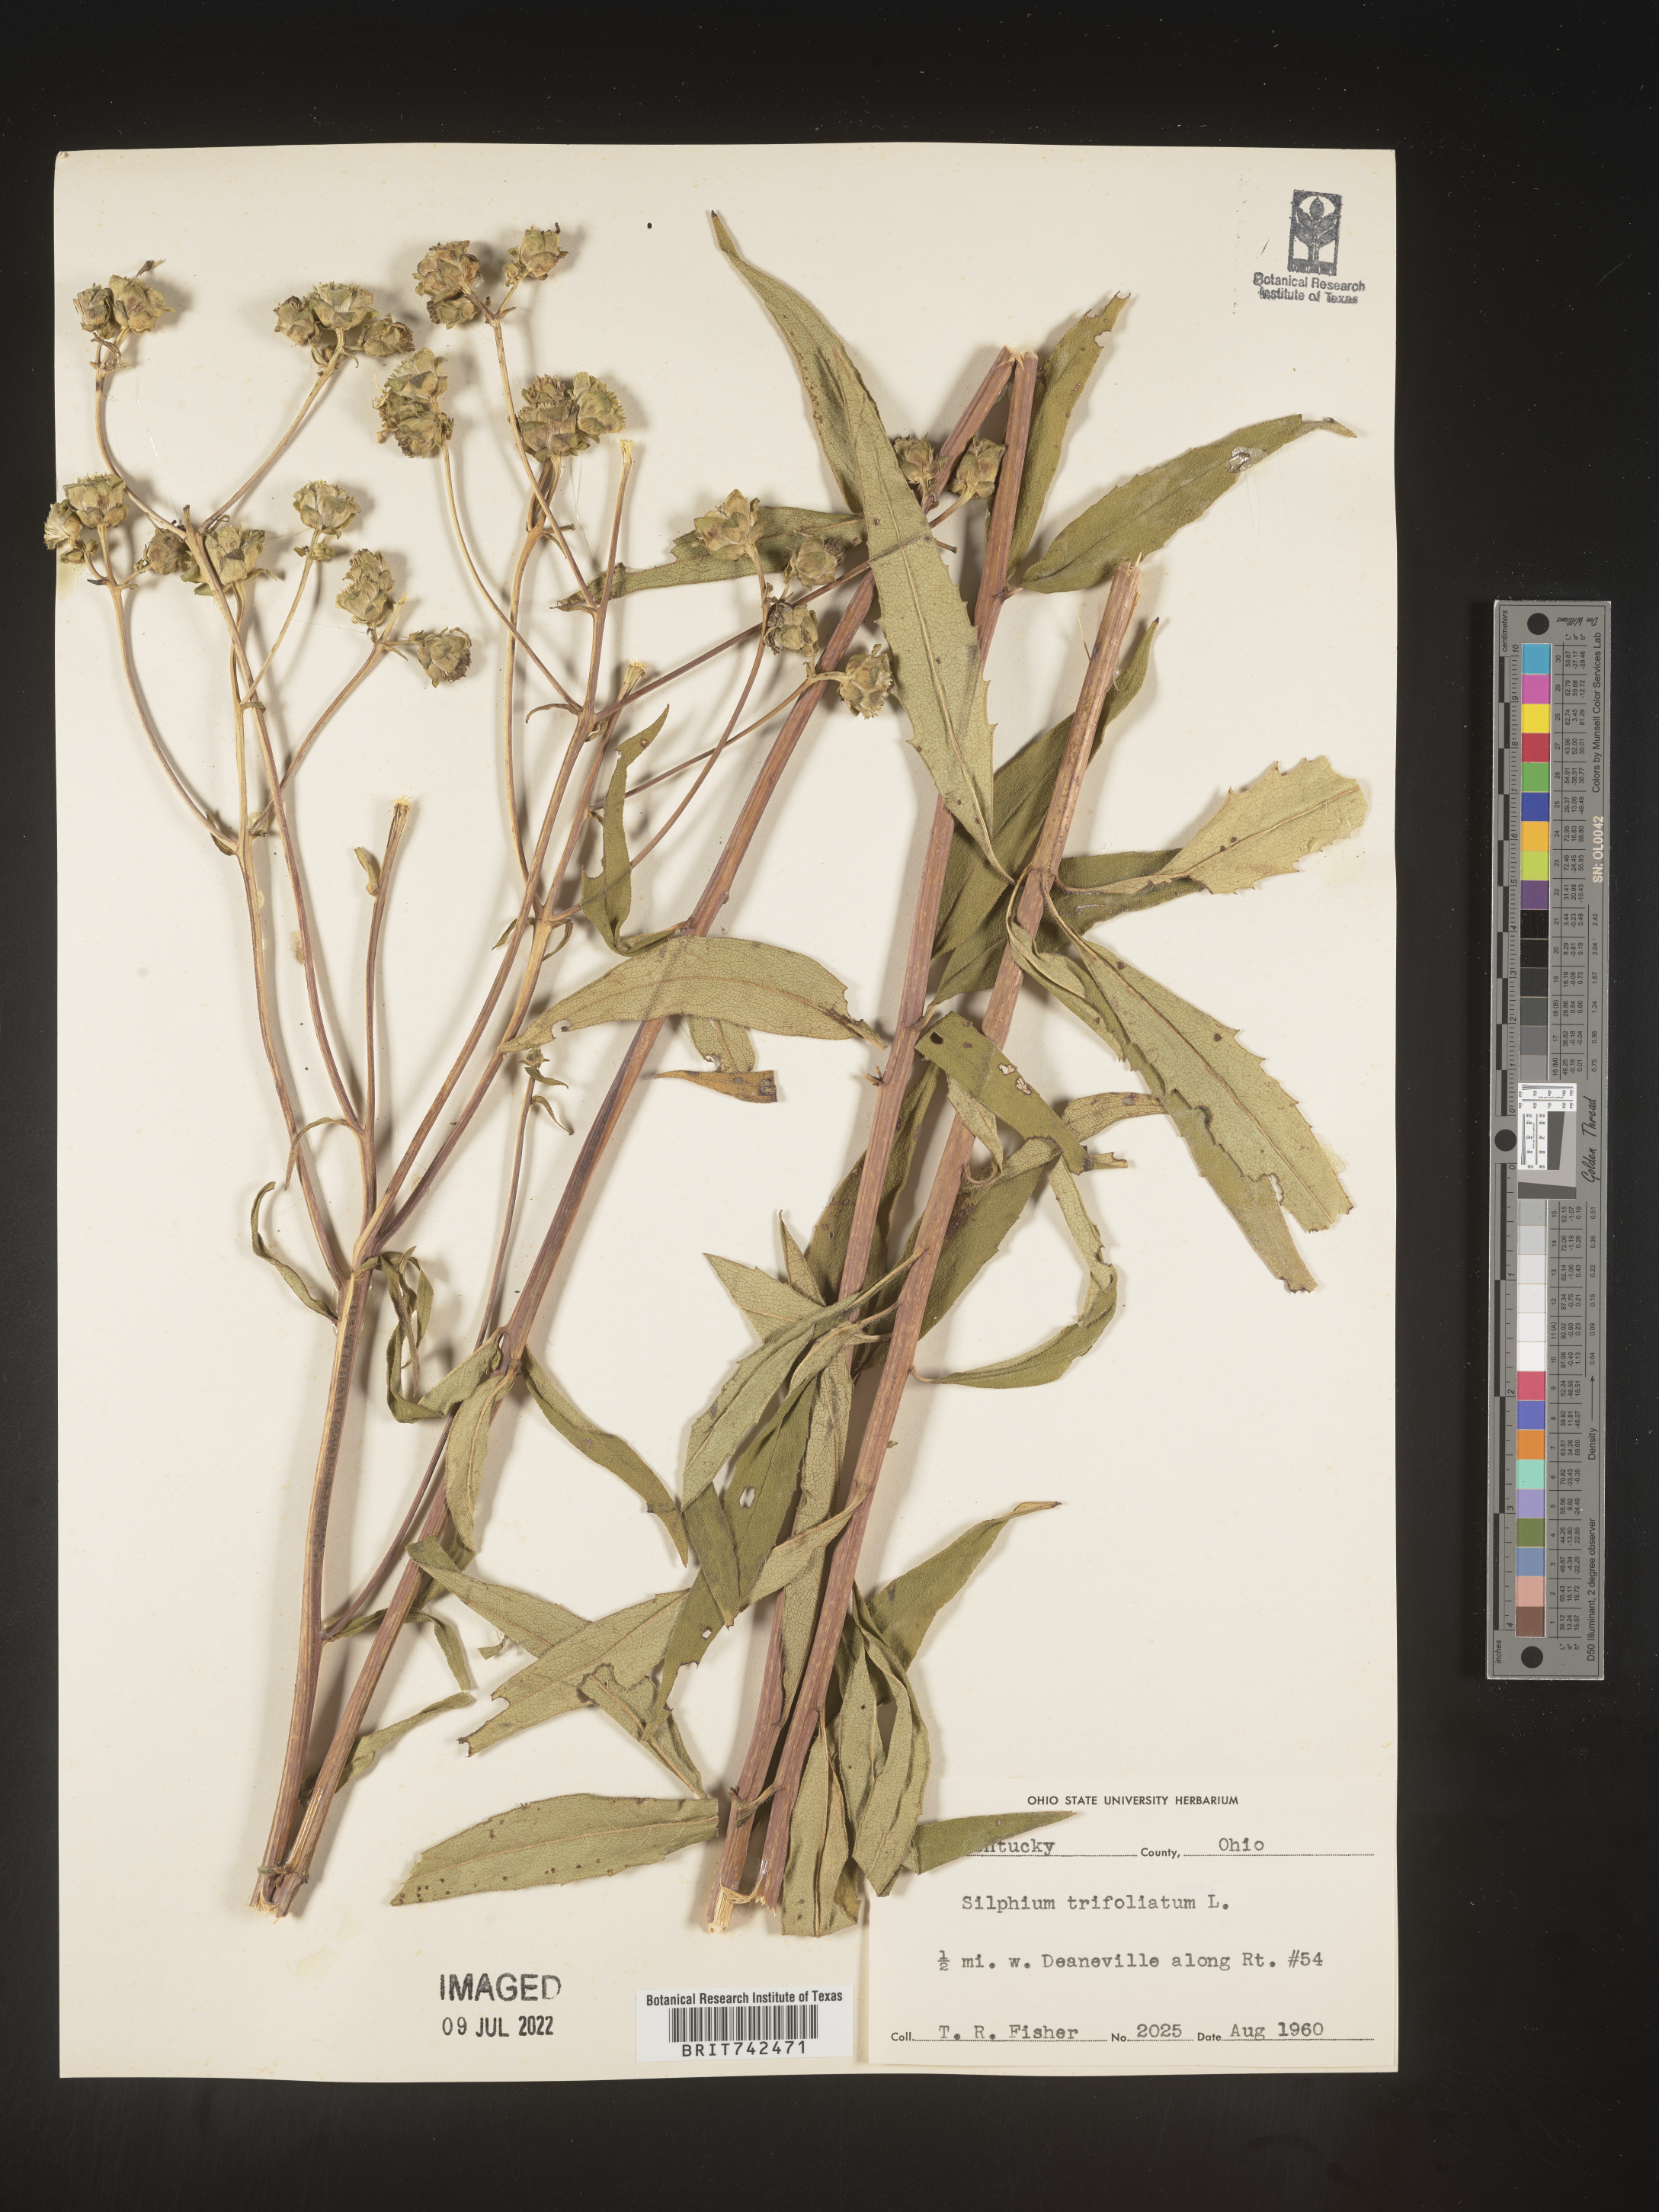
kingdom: Plantae
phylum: Tracheophyta
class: Magnoliopsida
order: Asterales
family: Asteraceae
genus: Silphium
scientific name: Silphium asteriscus
